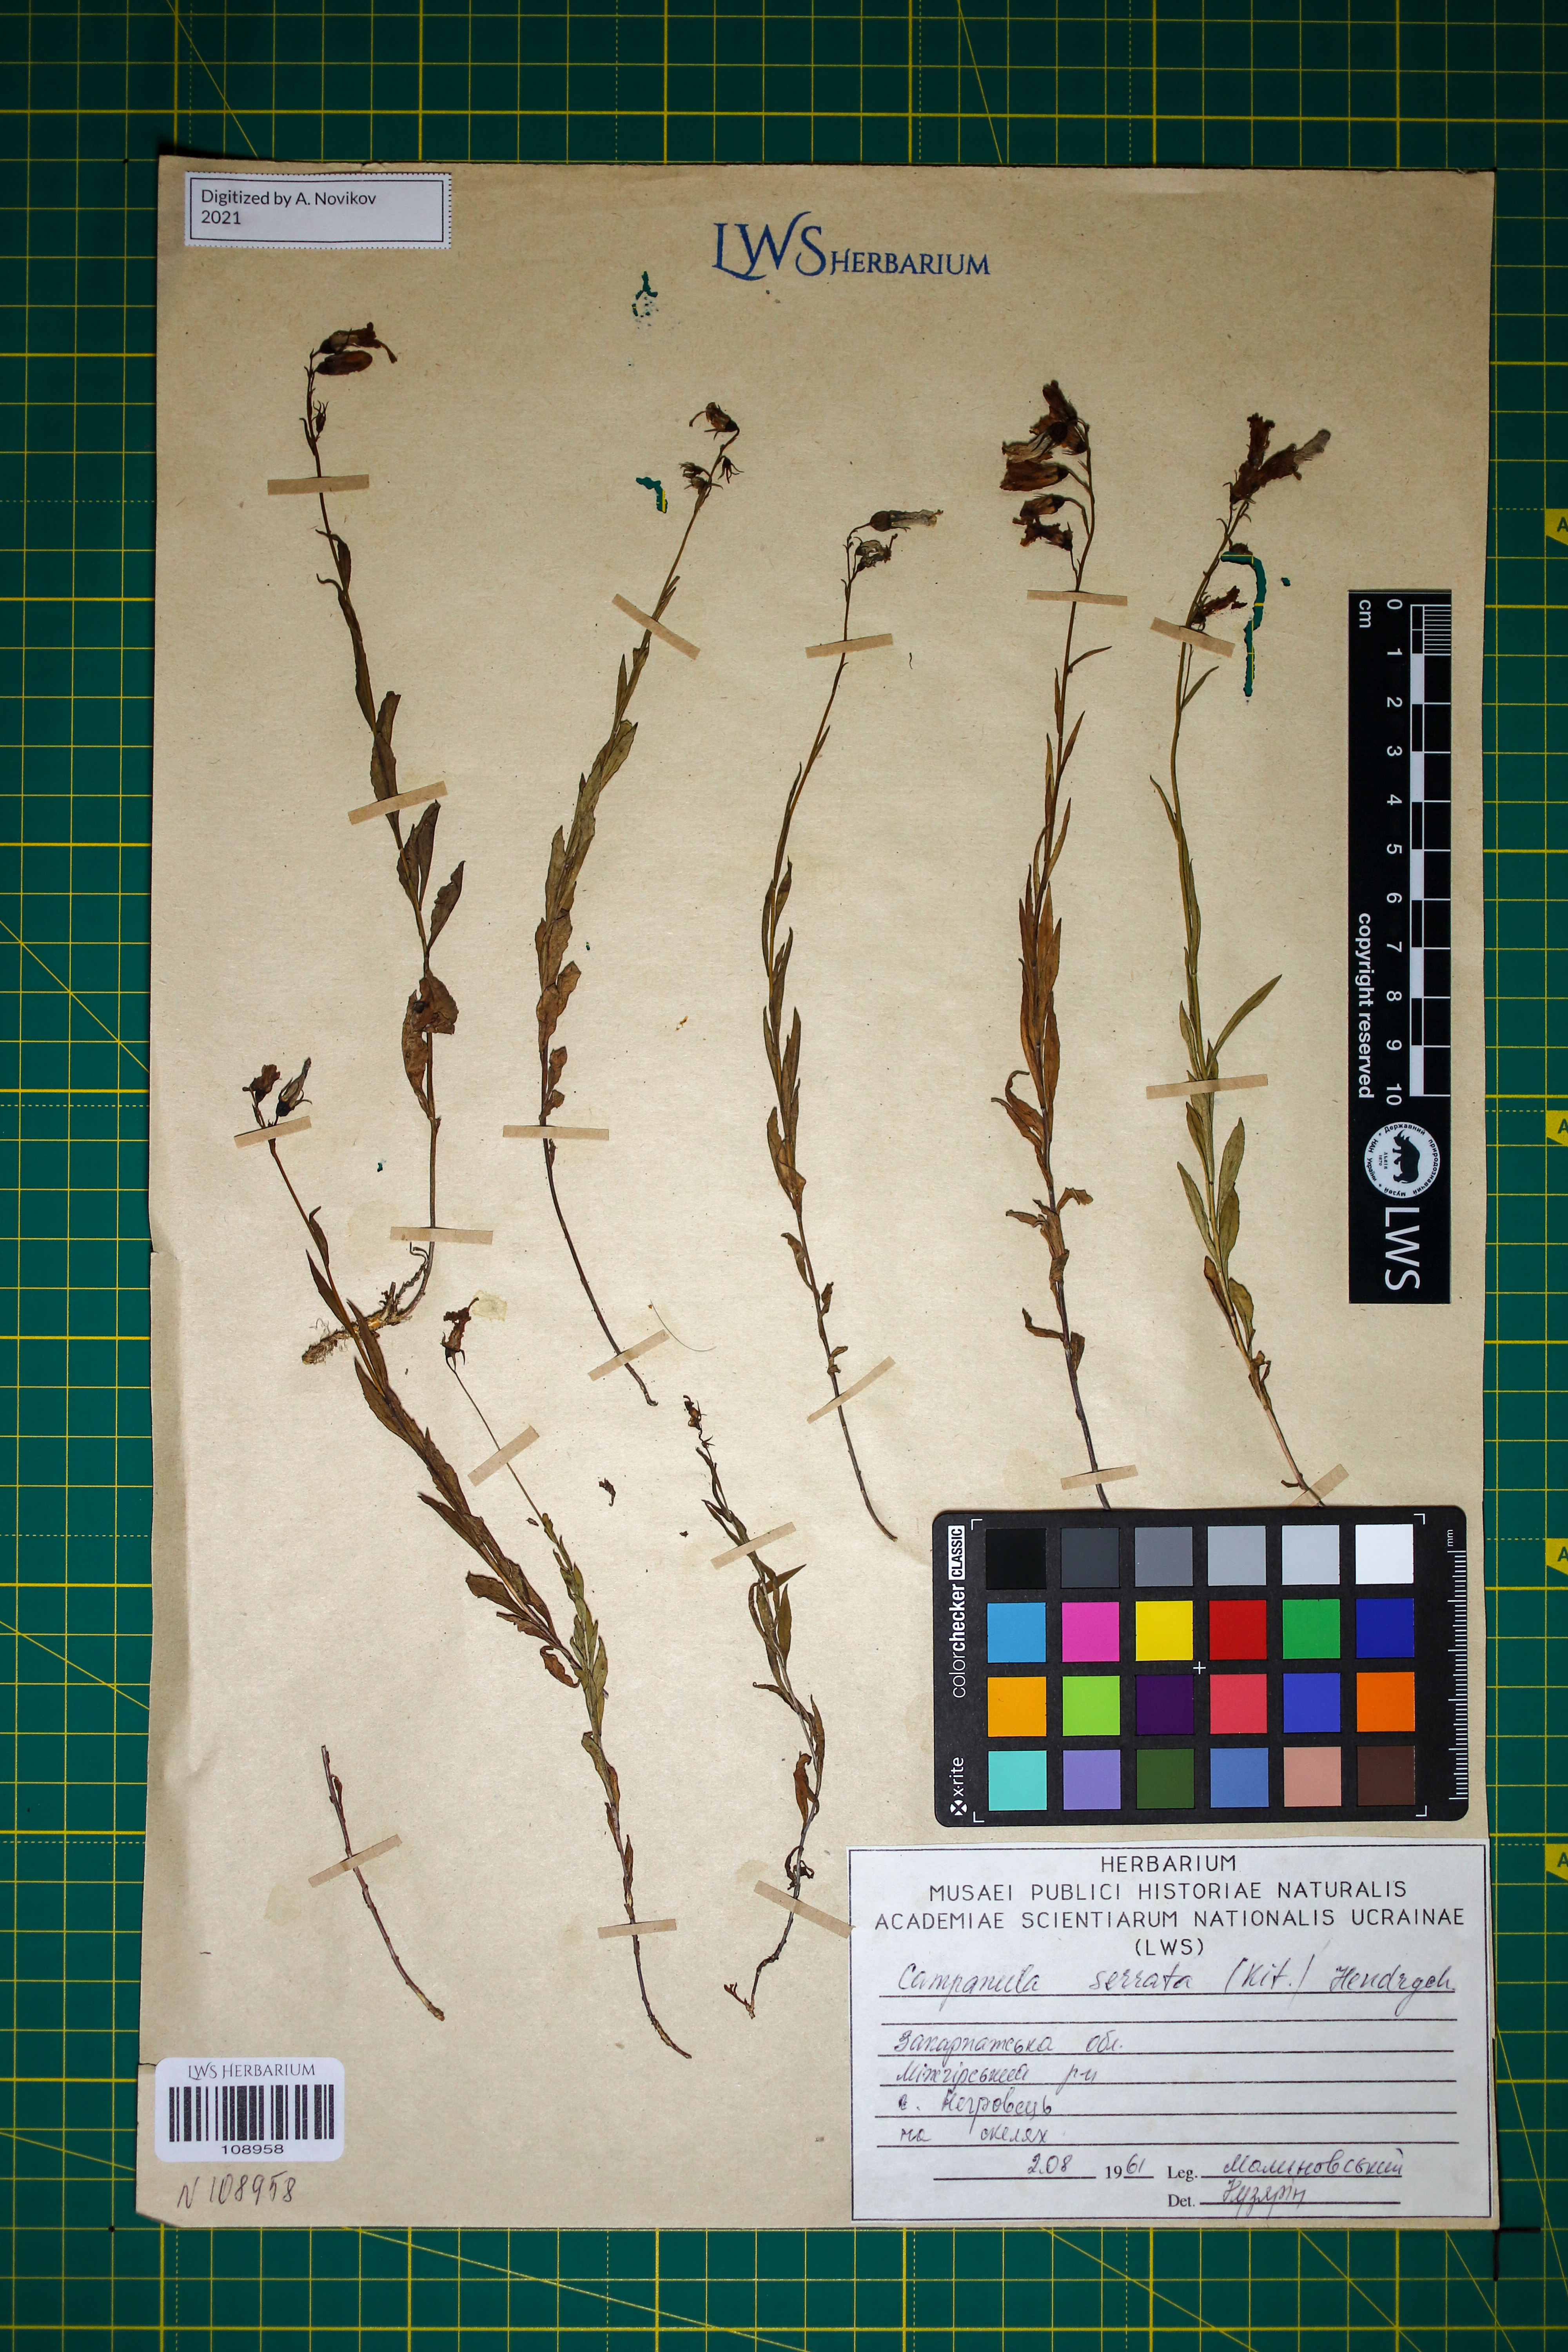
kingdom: Plantae
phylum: Tracheophyta
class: Magnoliopsida
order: Asterales
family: Campanulaceae
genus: Campanula
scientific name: Campanula serrata
